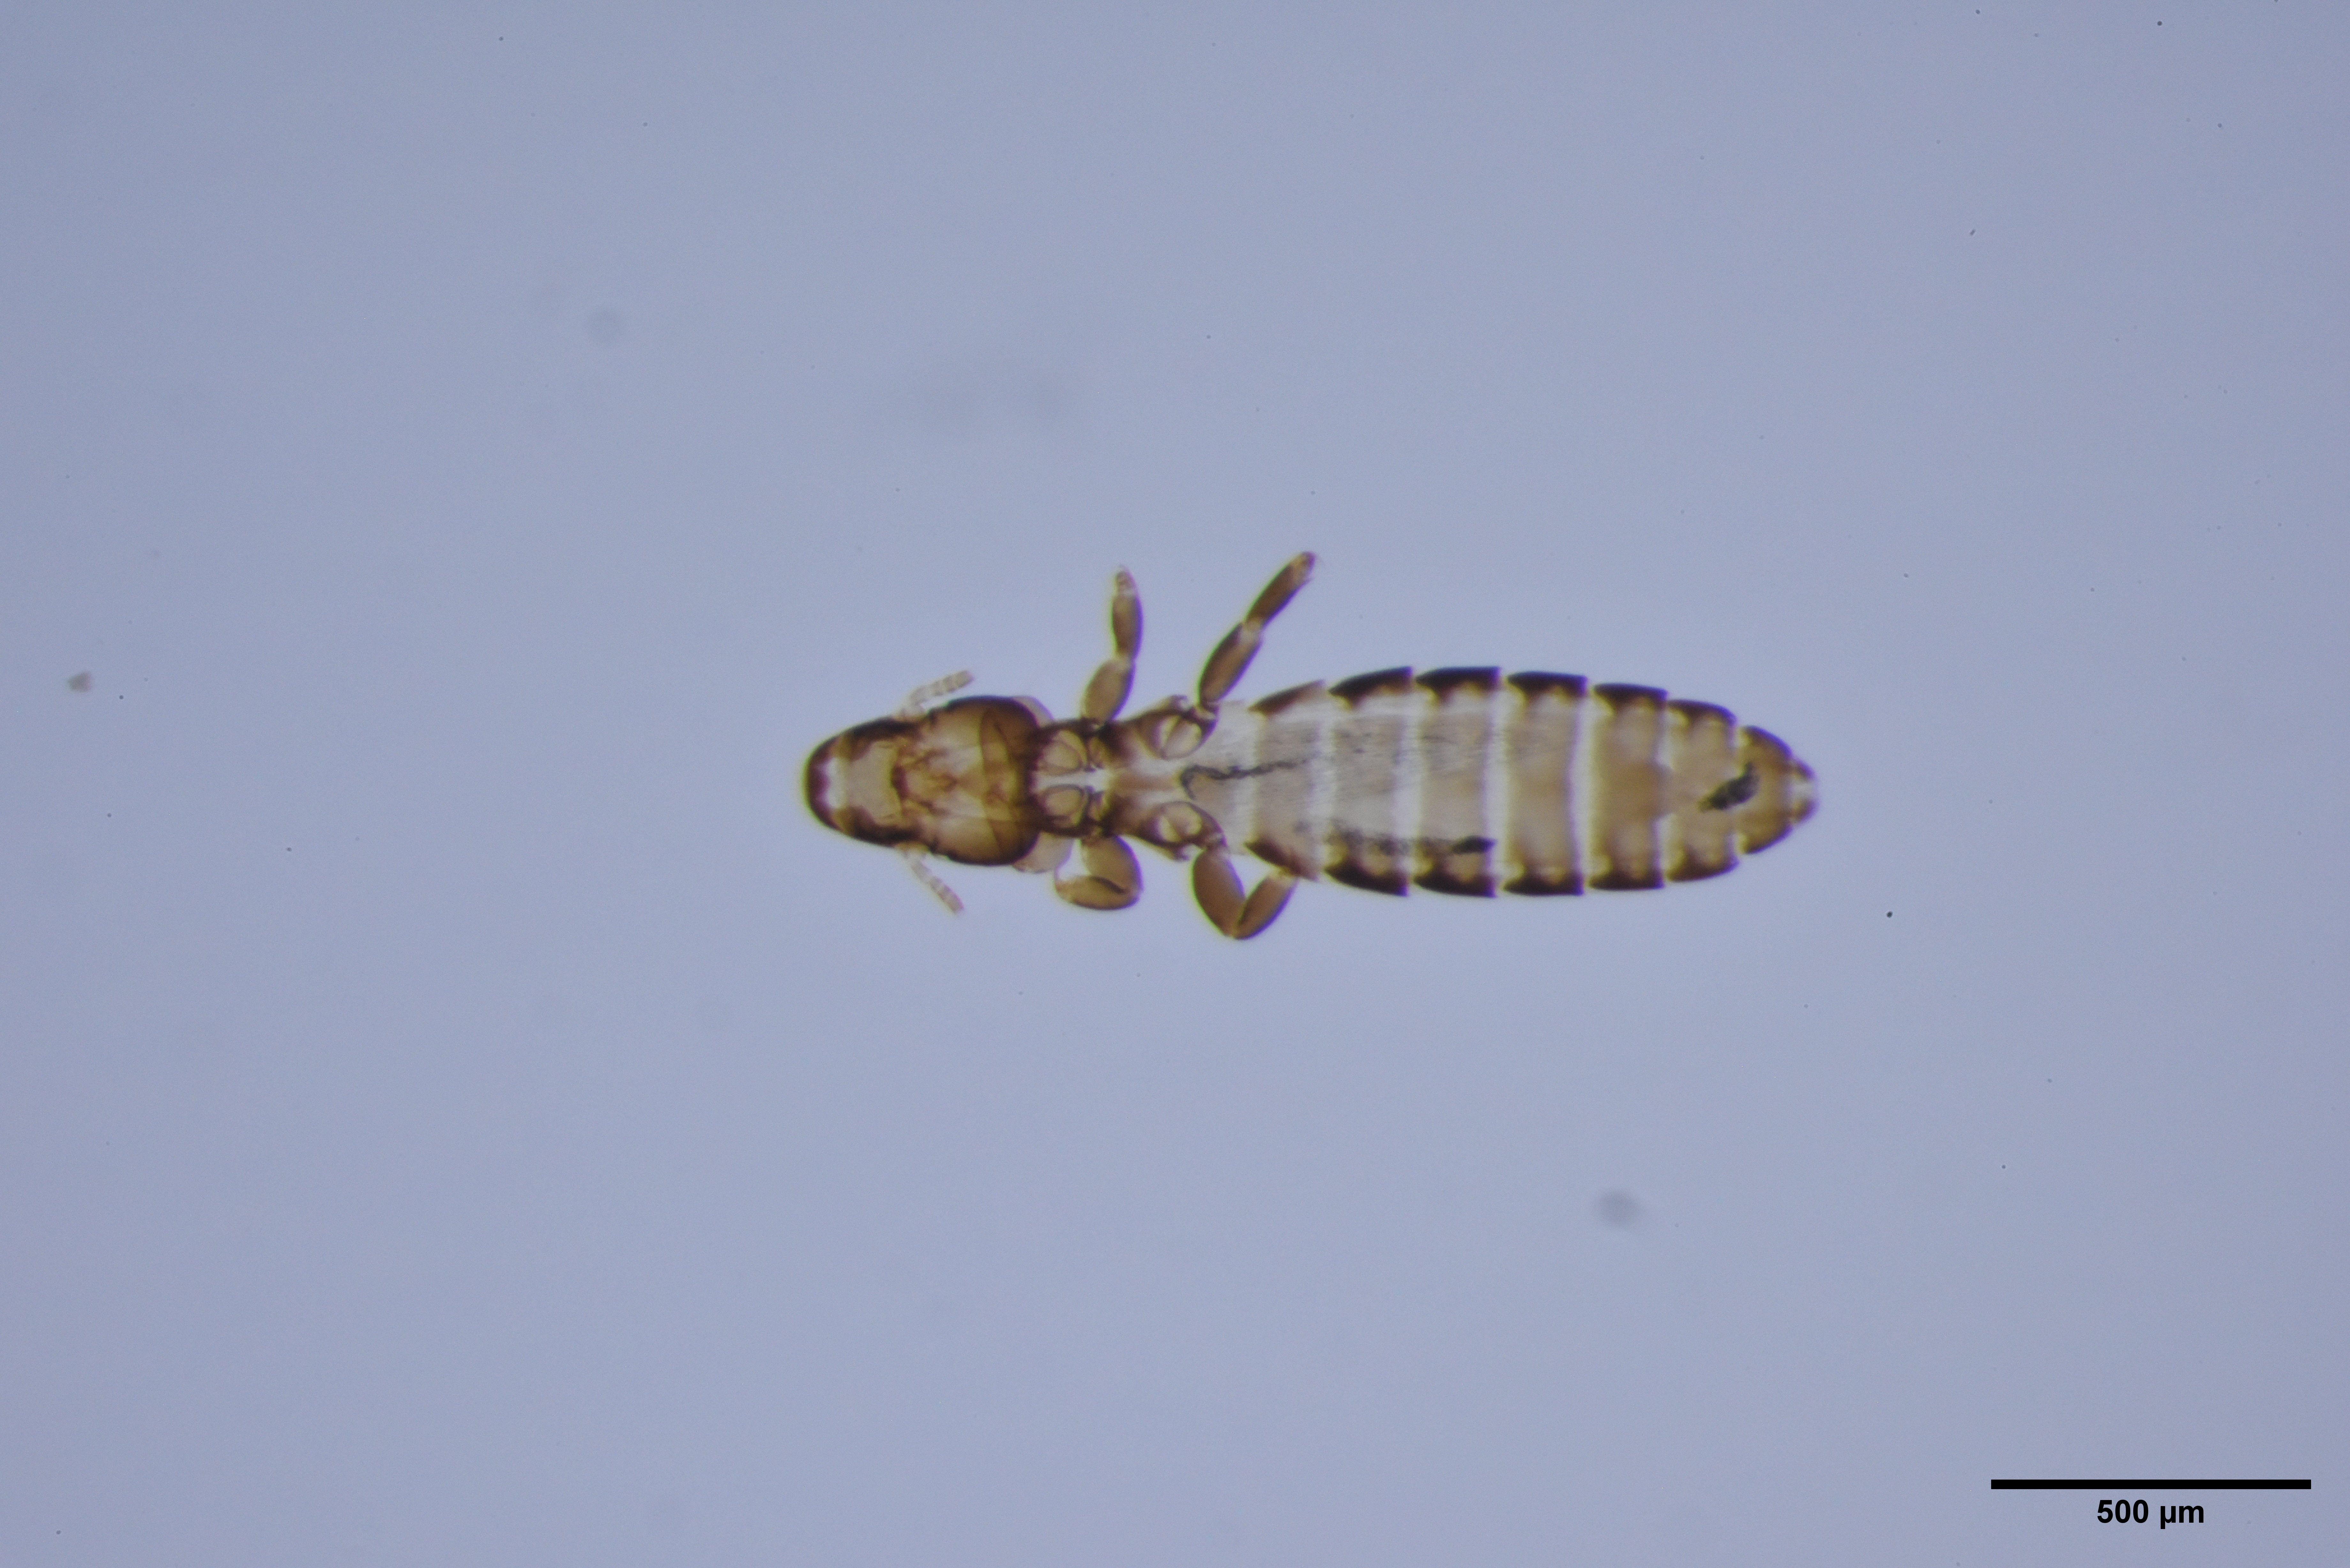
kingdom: Animalia
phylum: Arthropoda
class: Insecta
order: Psocodea
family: Philopteridae
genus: Lunaceps
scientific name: Lunaceps actophilus
